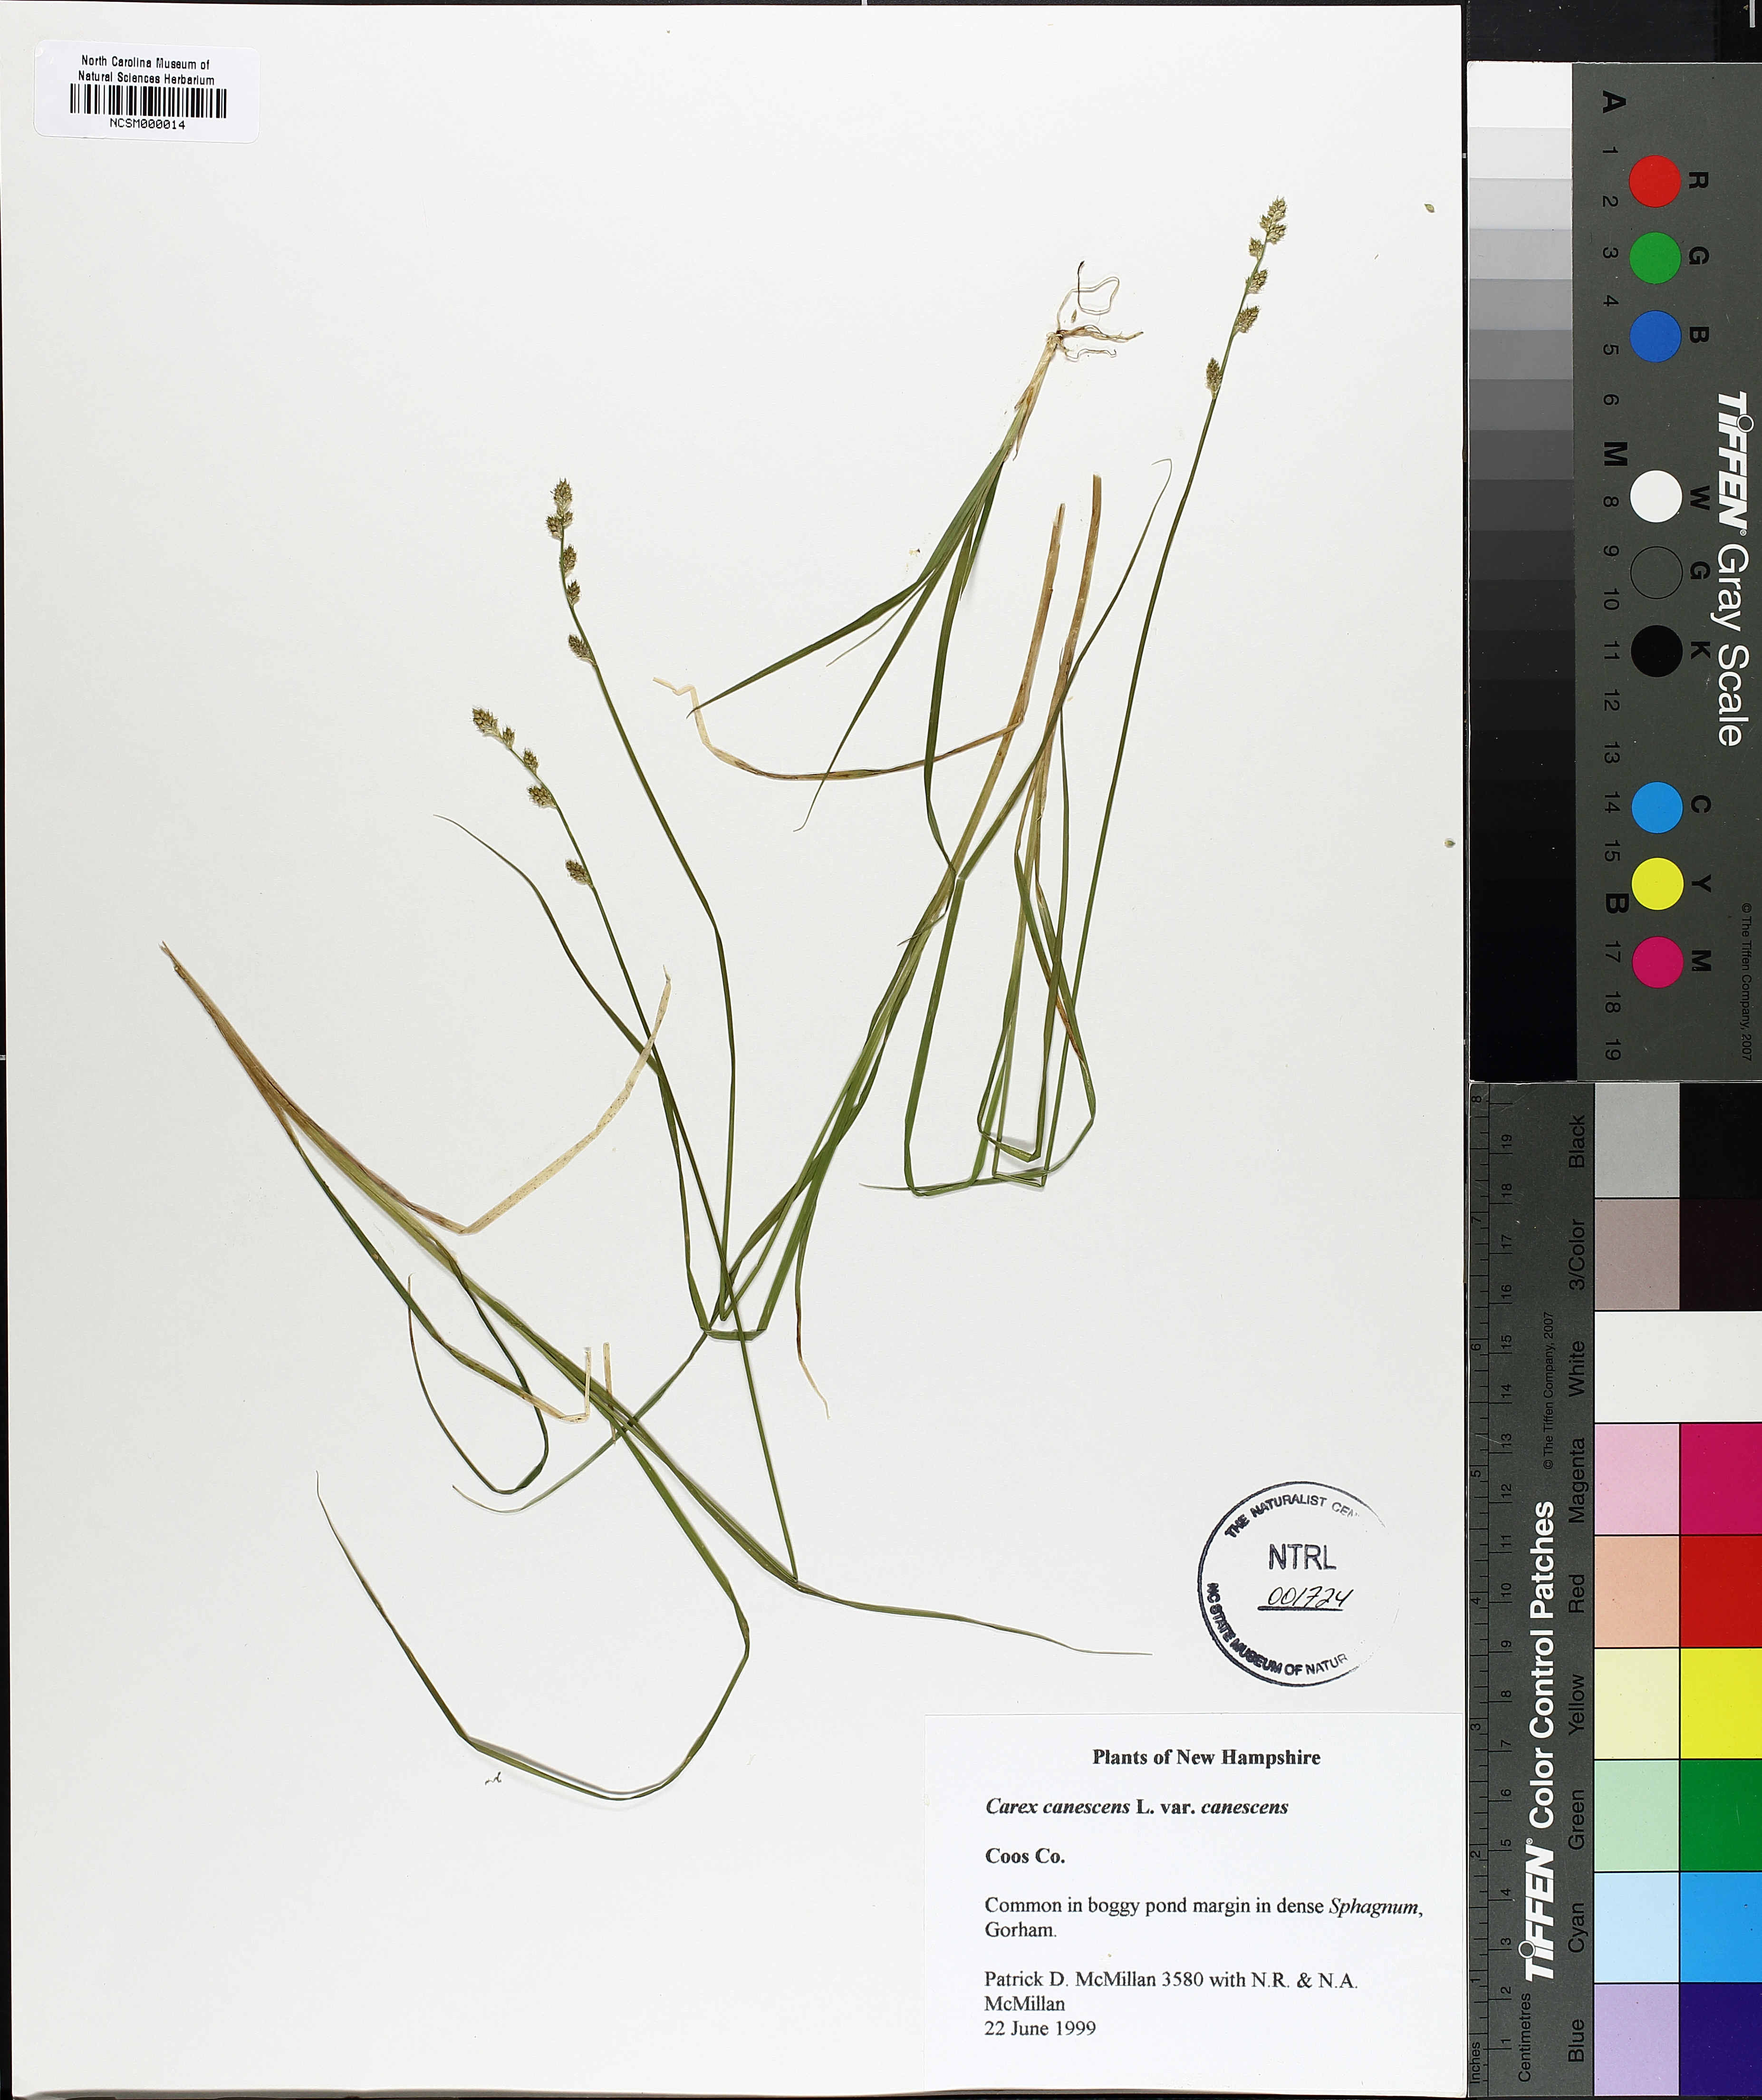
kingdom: Plantae
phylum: Tracheophyta
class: Liliopsida
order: Poales
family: Cyperaceae
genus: Carex
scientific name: Carex canescens
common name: White sedge
